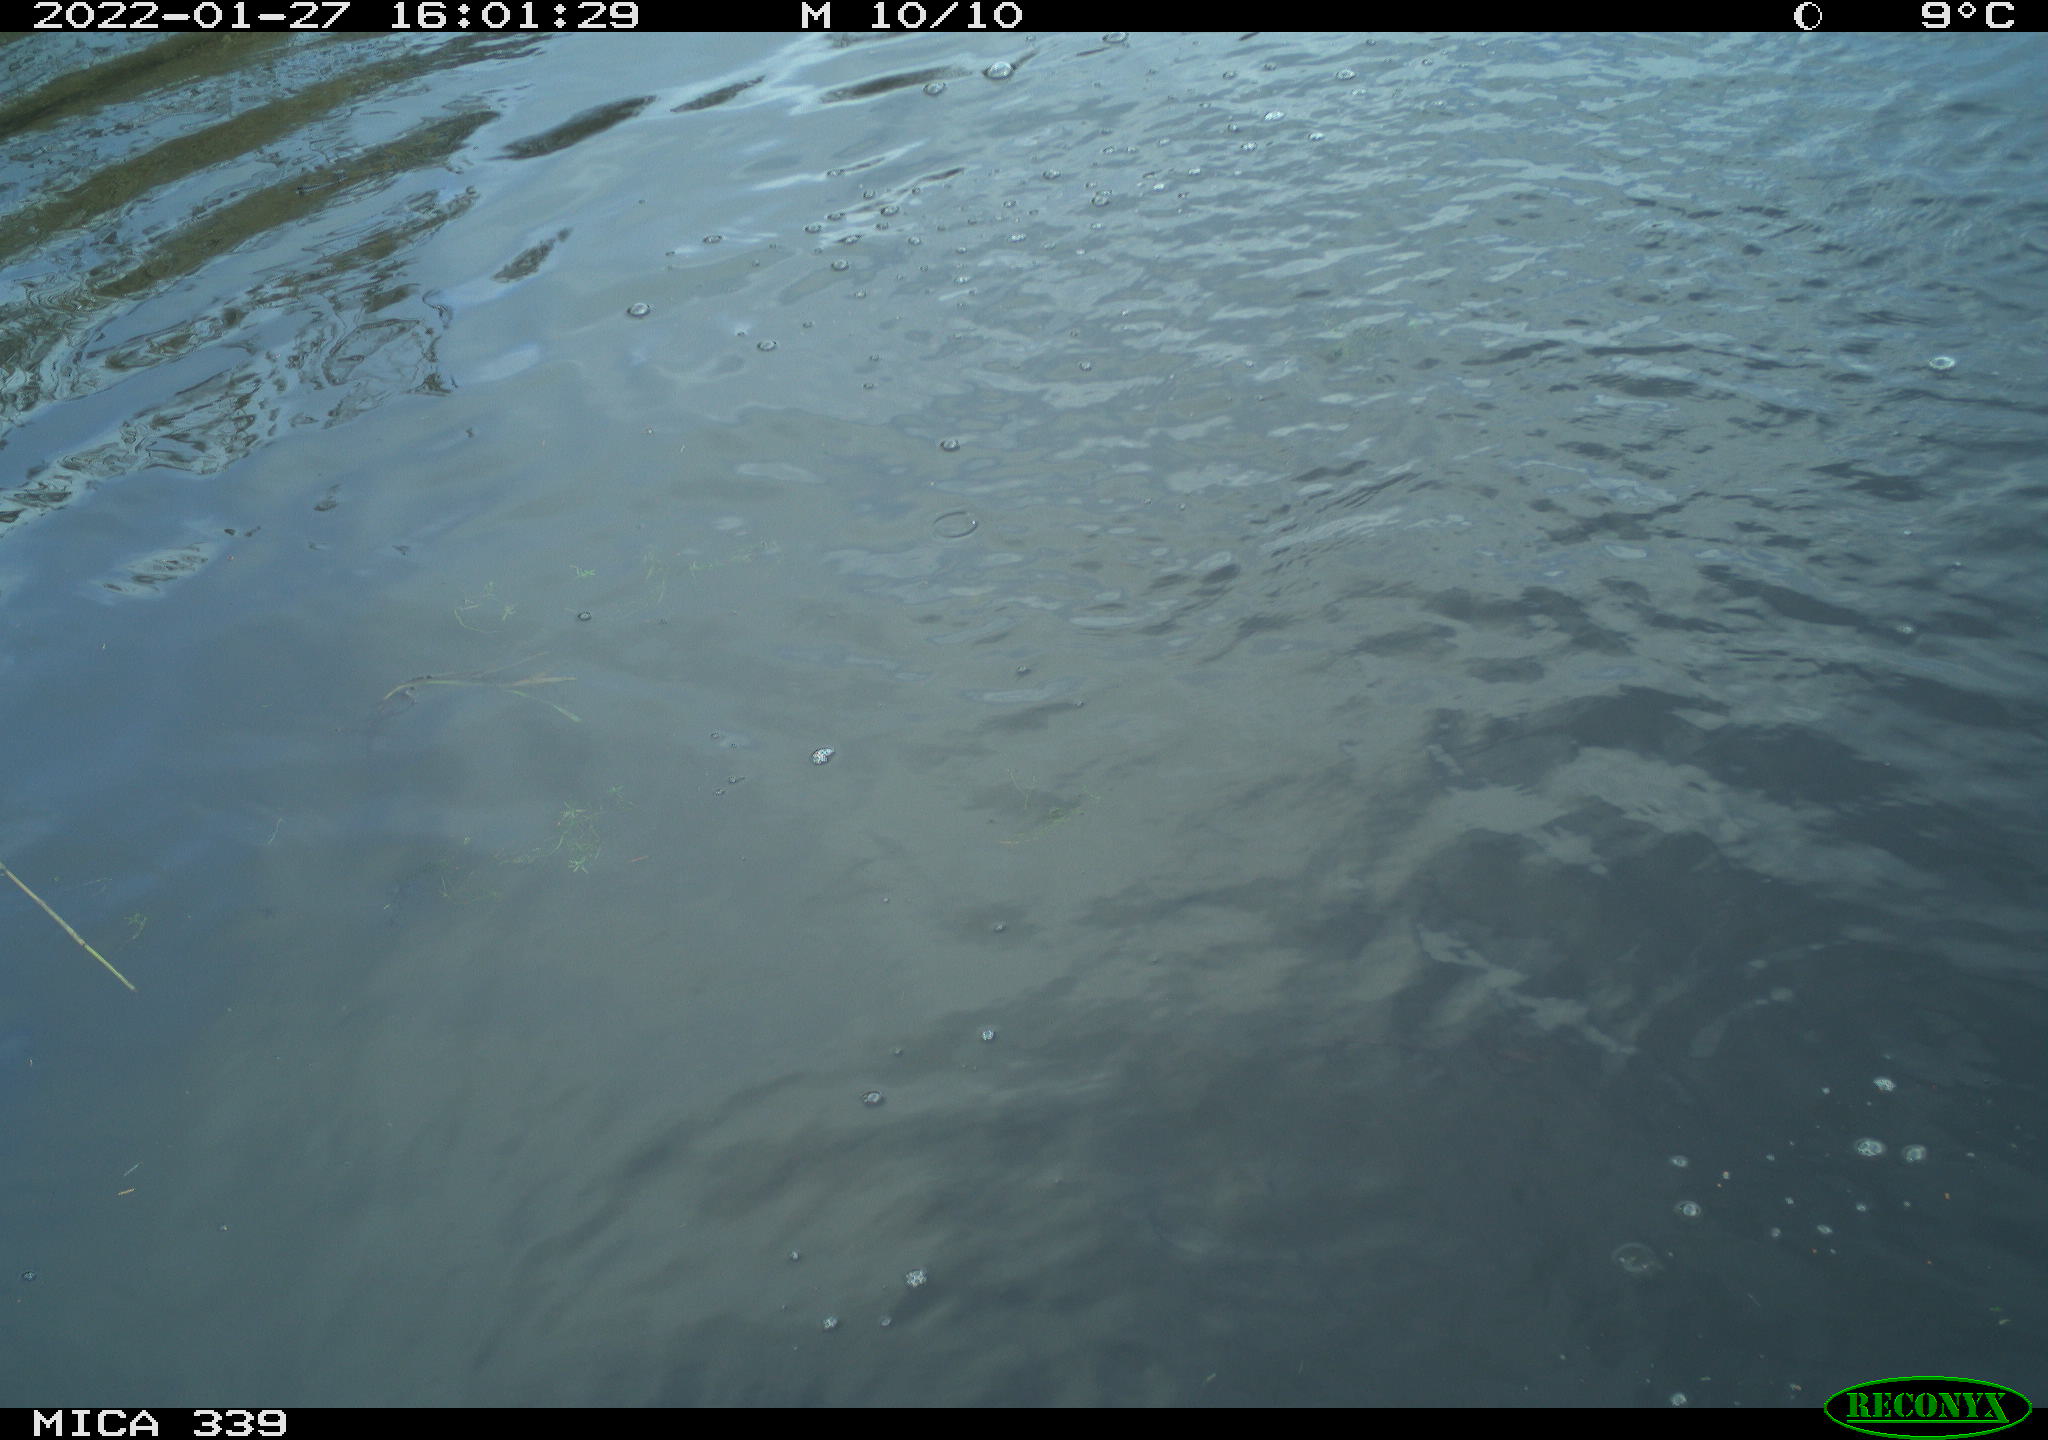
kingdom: Animalia
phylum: Chordata
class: Aves
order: Suliformes
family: Phalacrocoracidae
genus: Phalacrocorax
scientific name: Phalacrocorax carbo
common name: Great cormorant
